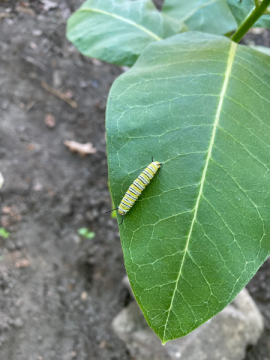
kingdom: Animalia
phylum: Arthropoda
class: Insecta
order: Lepidoptera
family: Nymphalidae
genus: Danaus
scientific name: Danaus plexippus
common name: Monarch
